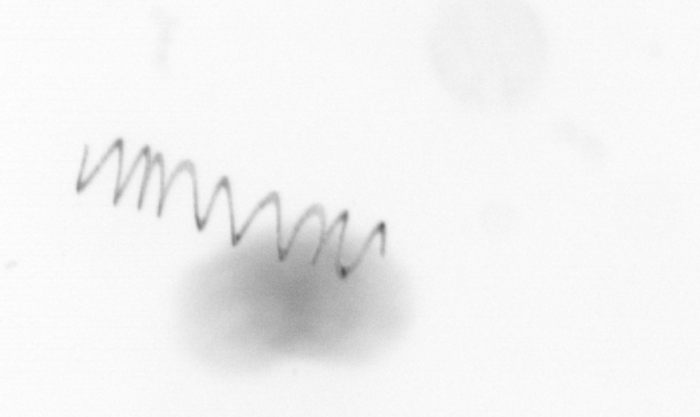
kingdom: Chromista
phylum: Ochrophyta
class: Bacillariophyceae
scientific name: Bacillariophyceae
